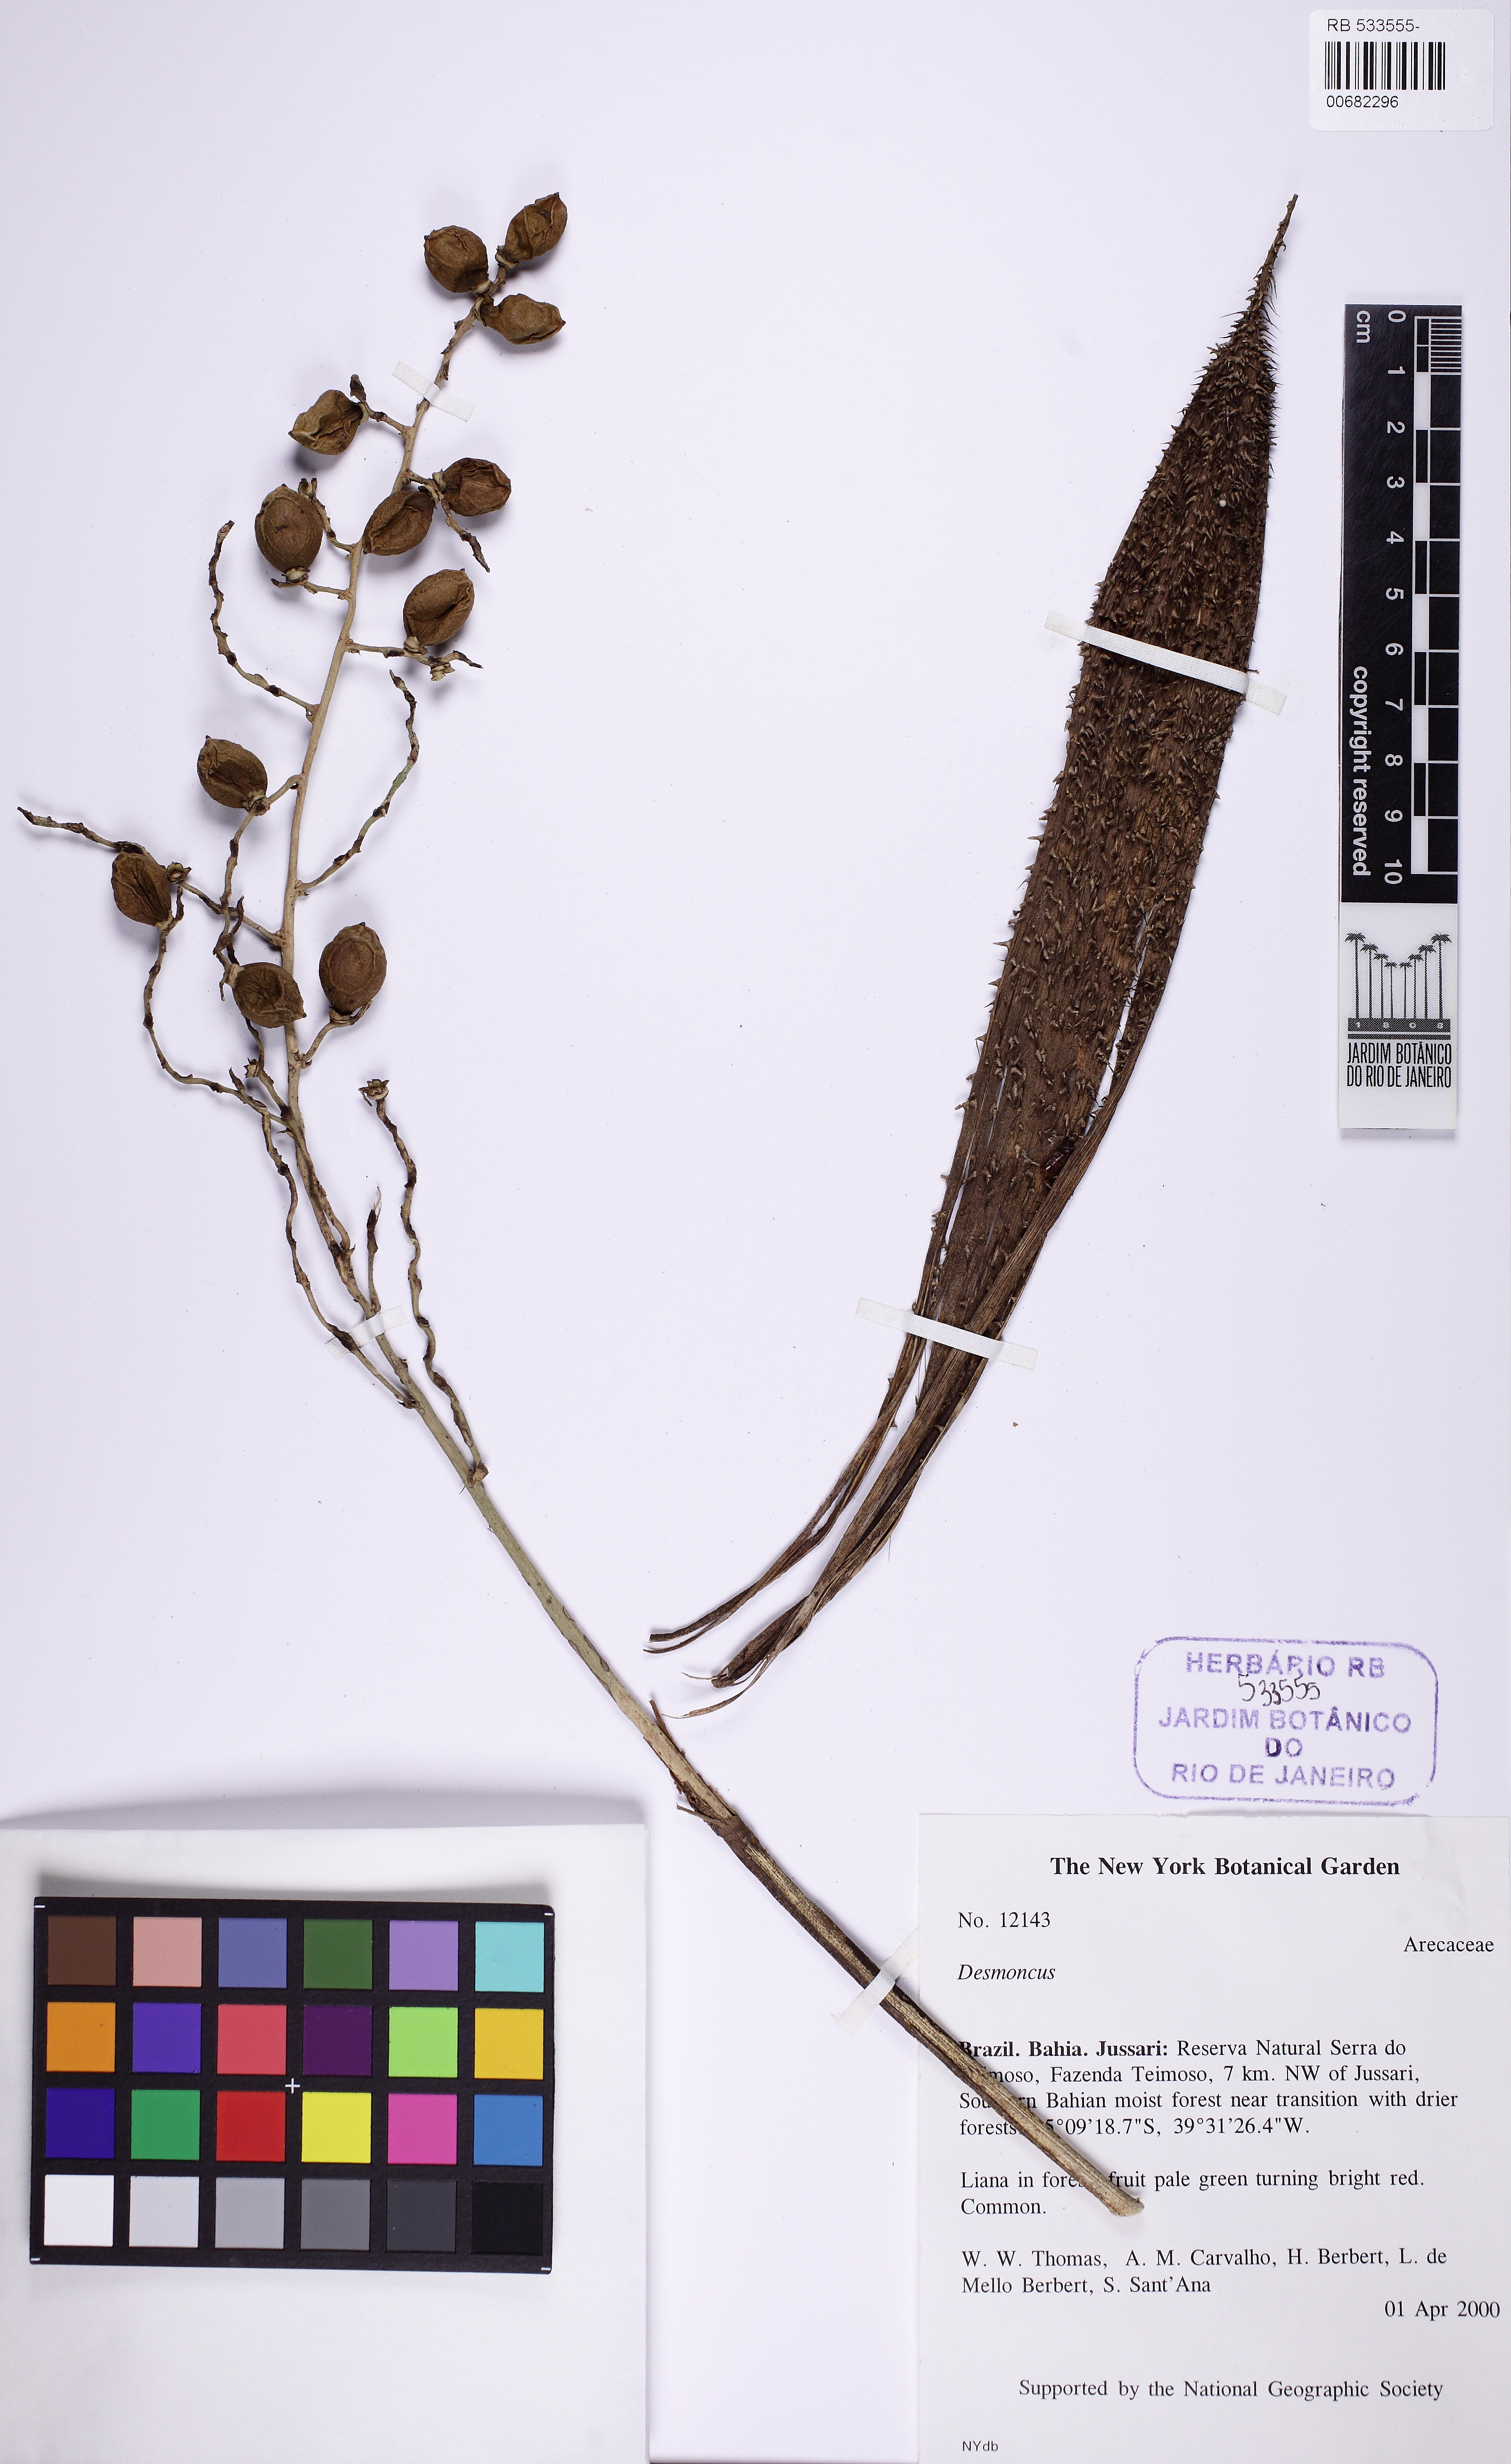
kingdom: Plantae
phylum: Tracheophyta
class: Liliopsida
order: Arecales
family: Arecaceae
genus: Desmoncus
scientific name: Desmoncus polyacanthos
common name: Suriname bramble palm
